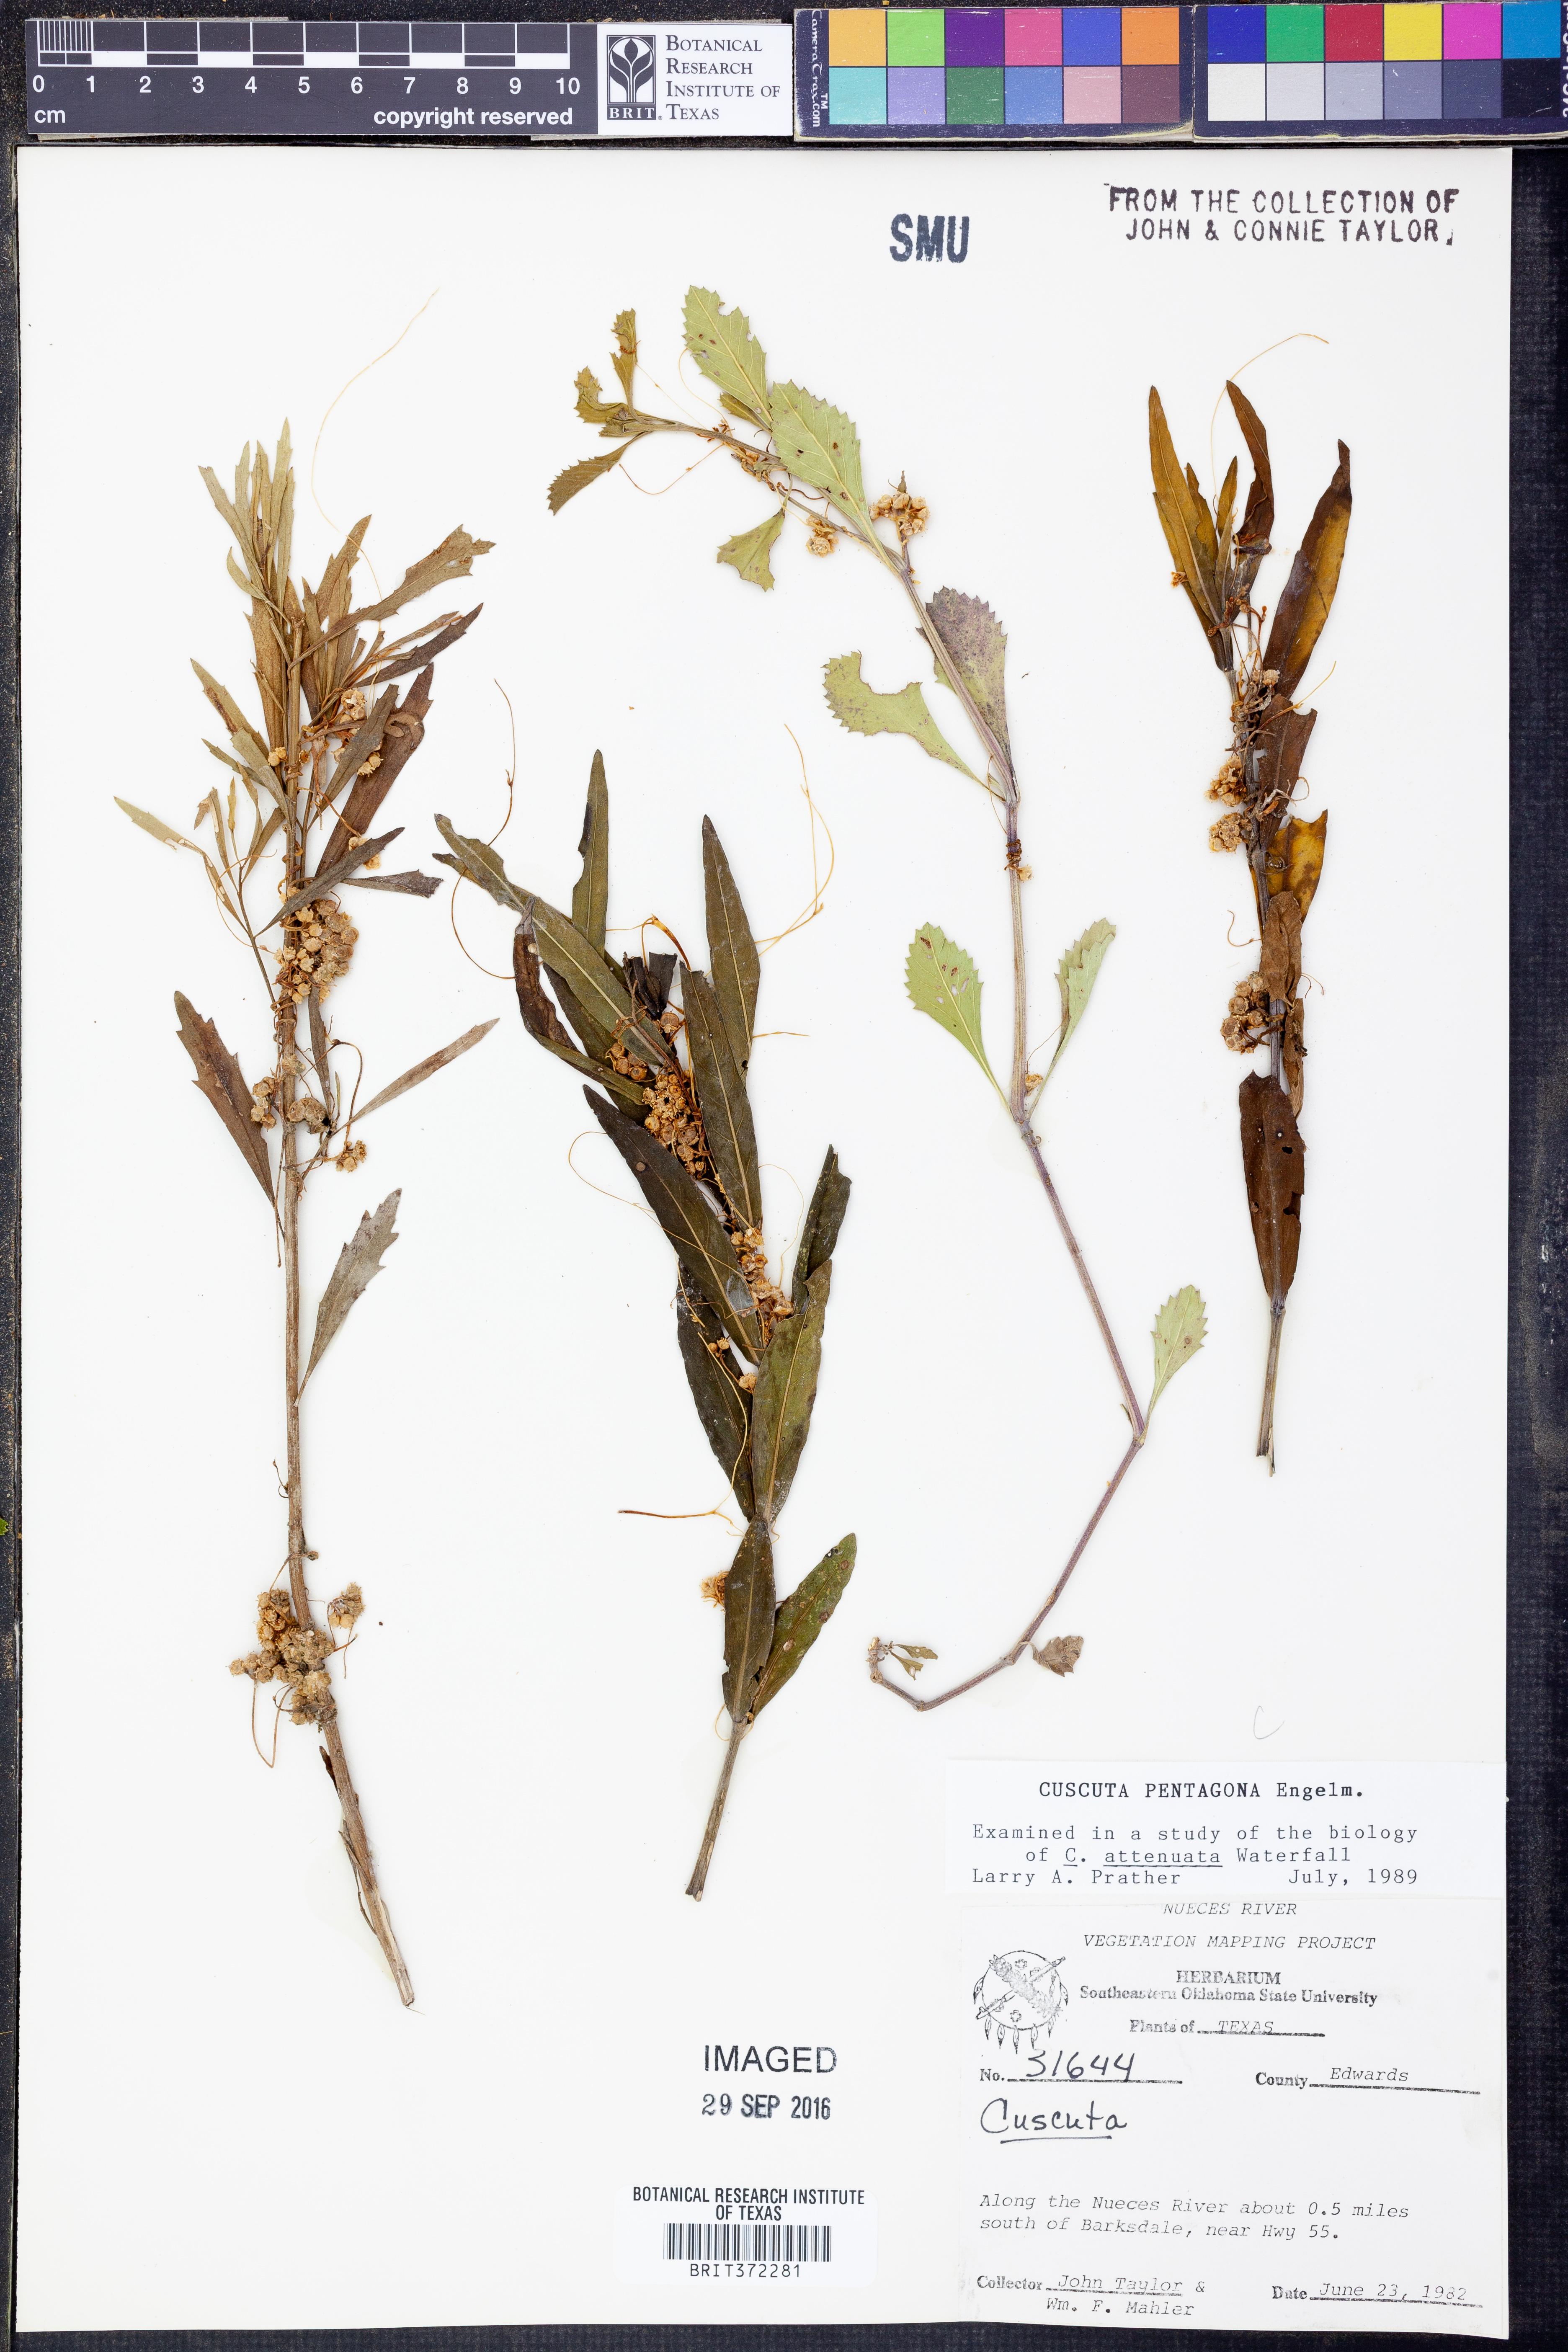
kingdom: Plantae
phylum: Tracheophyta
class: Magnoliopsida
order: Solanales
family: Convolvulaceae
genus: Cuscuta
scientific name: Cuscuta pentagona
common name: Fiveangled dodder
